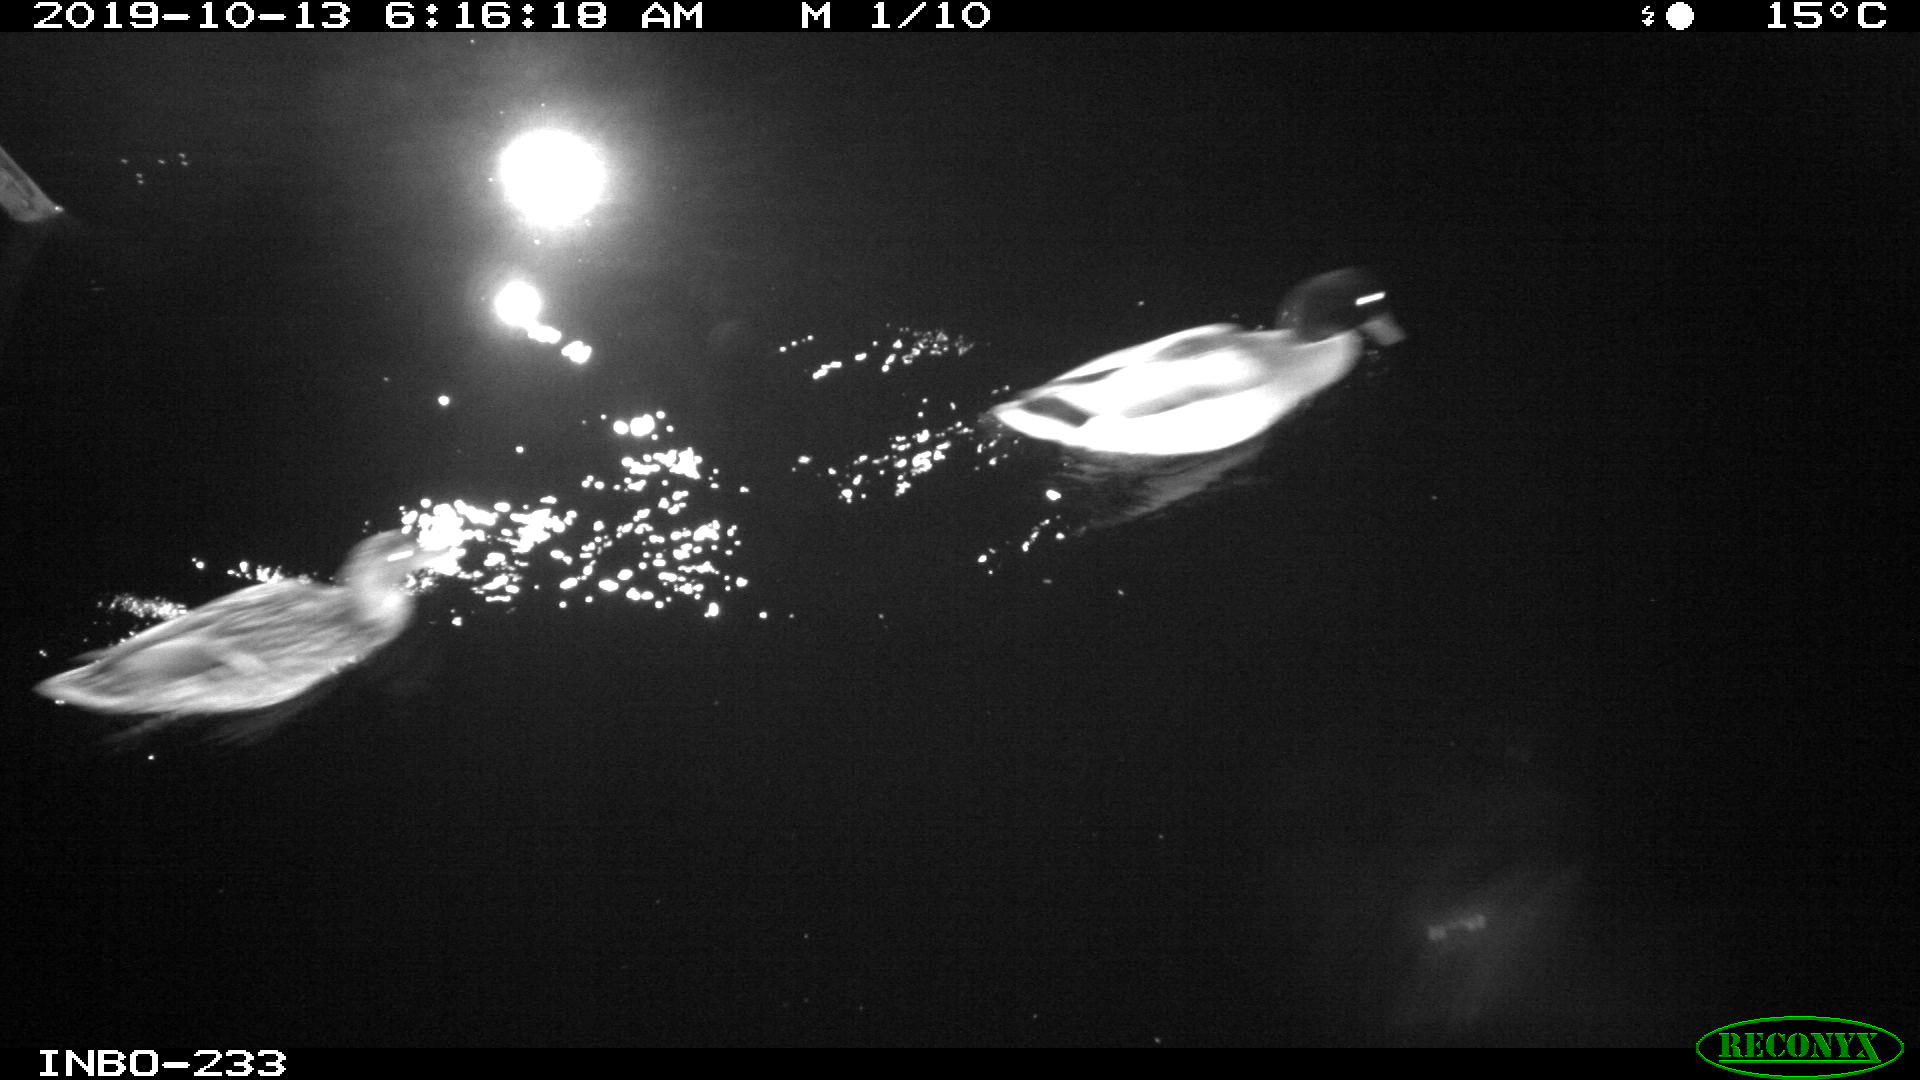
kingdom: Animalia
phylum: Chordata
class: Aves
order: Anseriformes
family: Anatidae
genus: Anas
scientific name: Anas platyrhynchos
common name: Mallard
